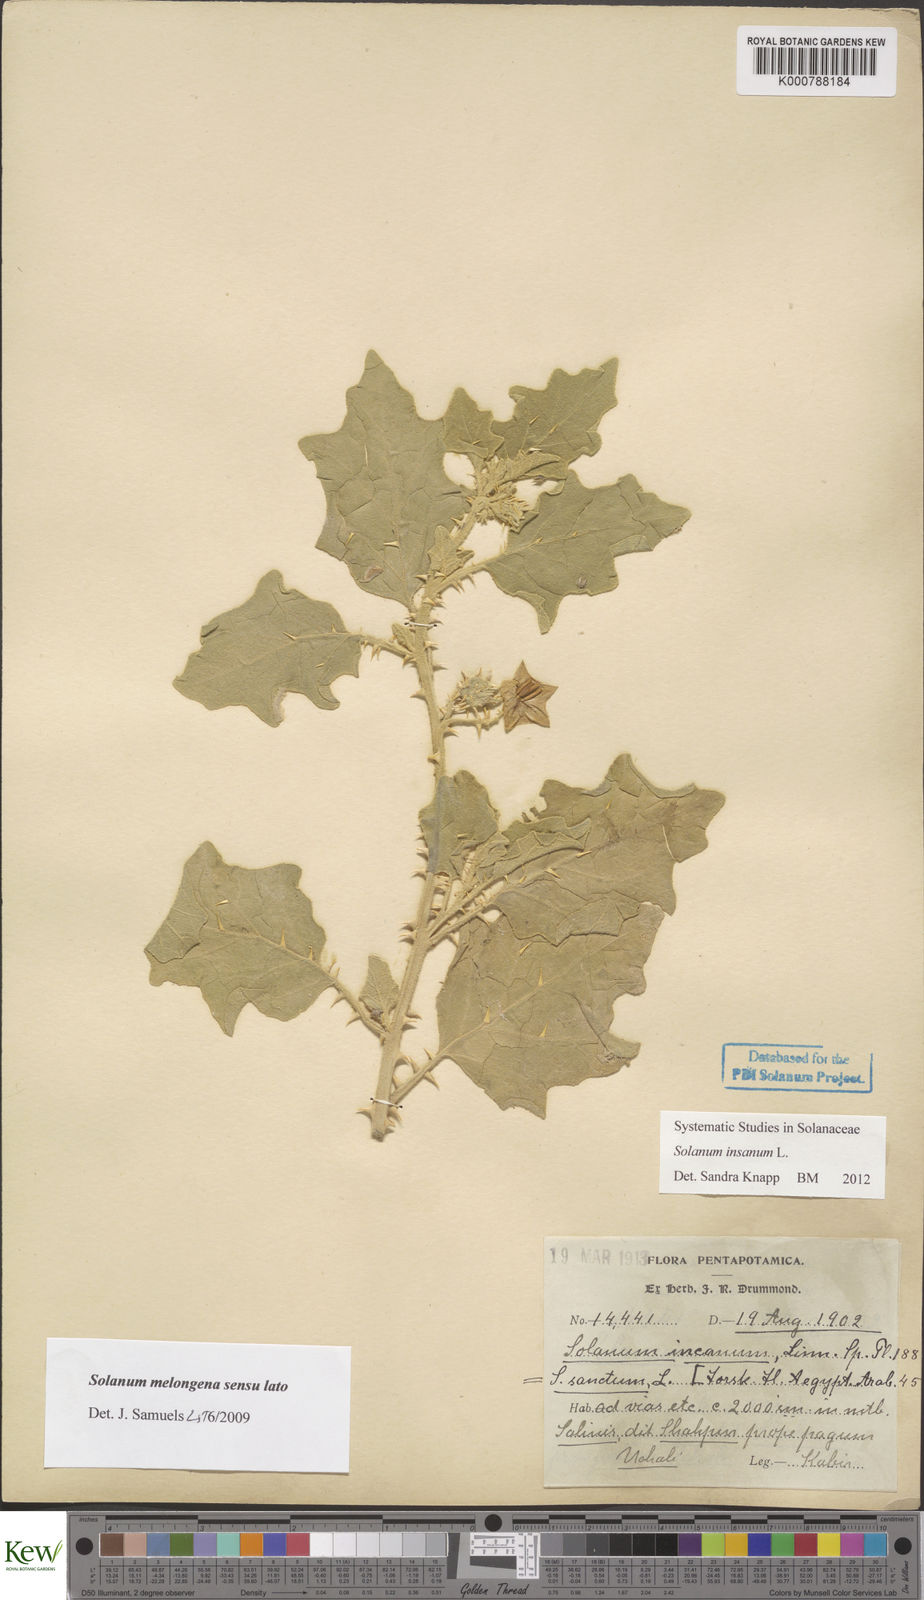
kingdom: Plantae
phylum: Tracheophyta
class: Magnoliopsida
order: Solanales
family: Solanaceae
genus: Solanum
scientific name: Solanum insanum
